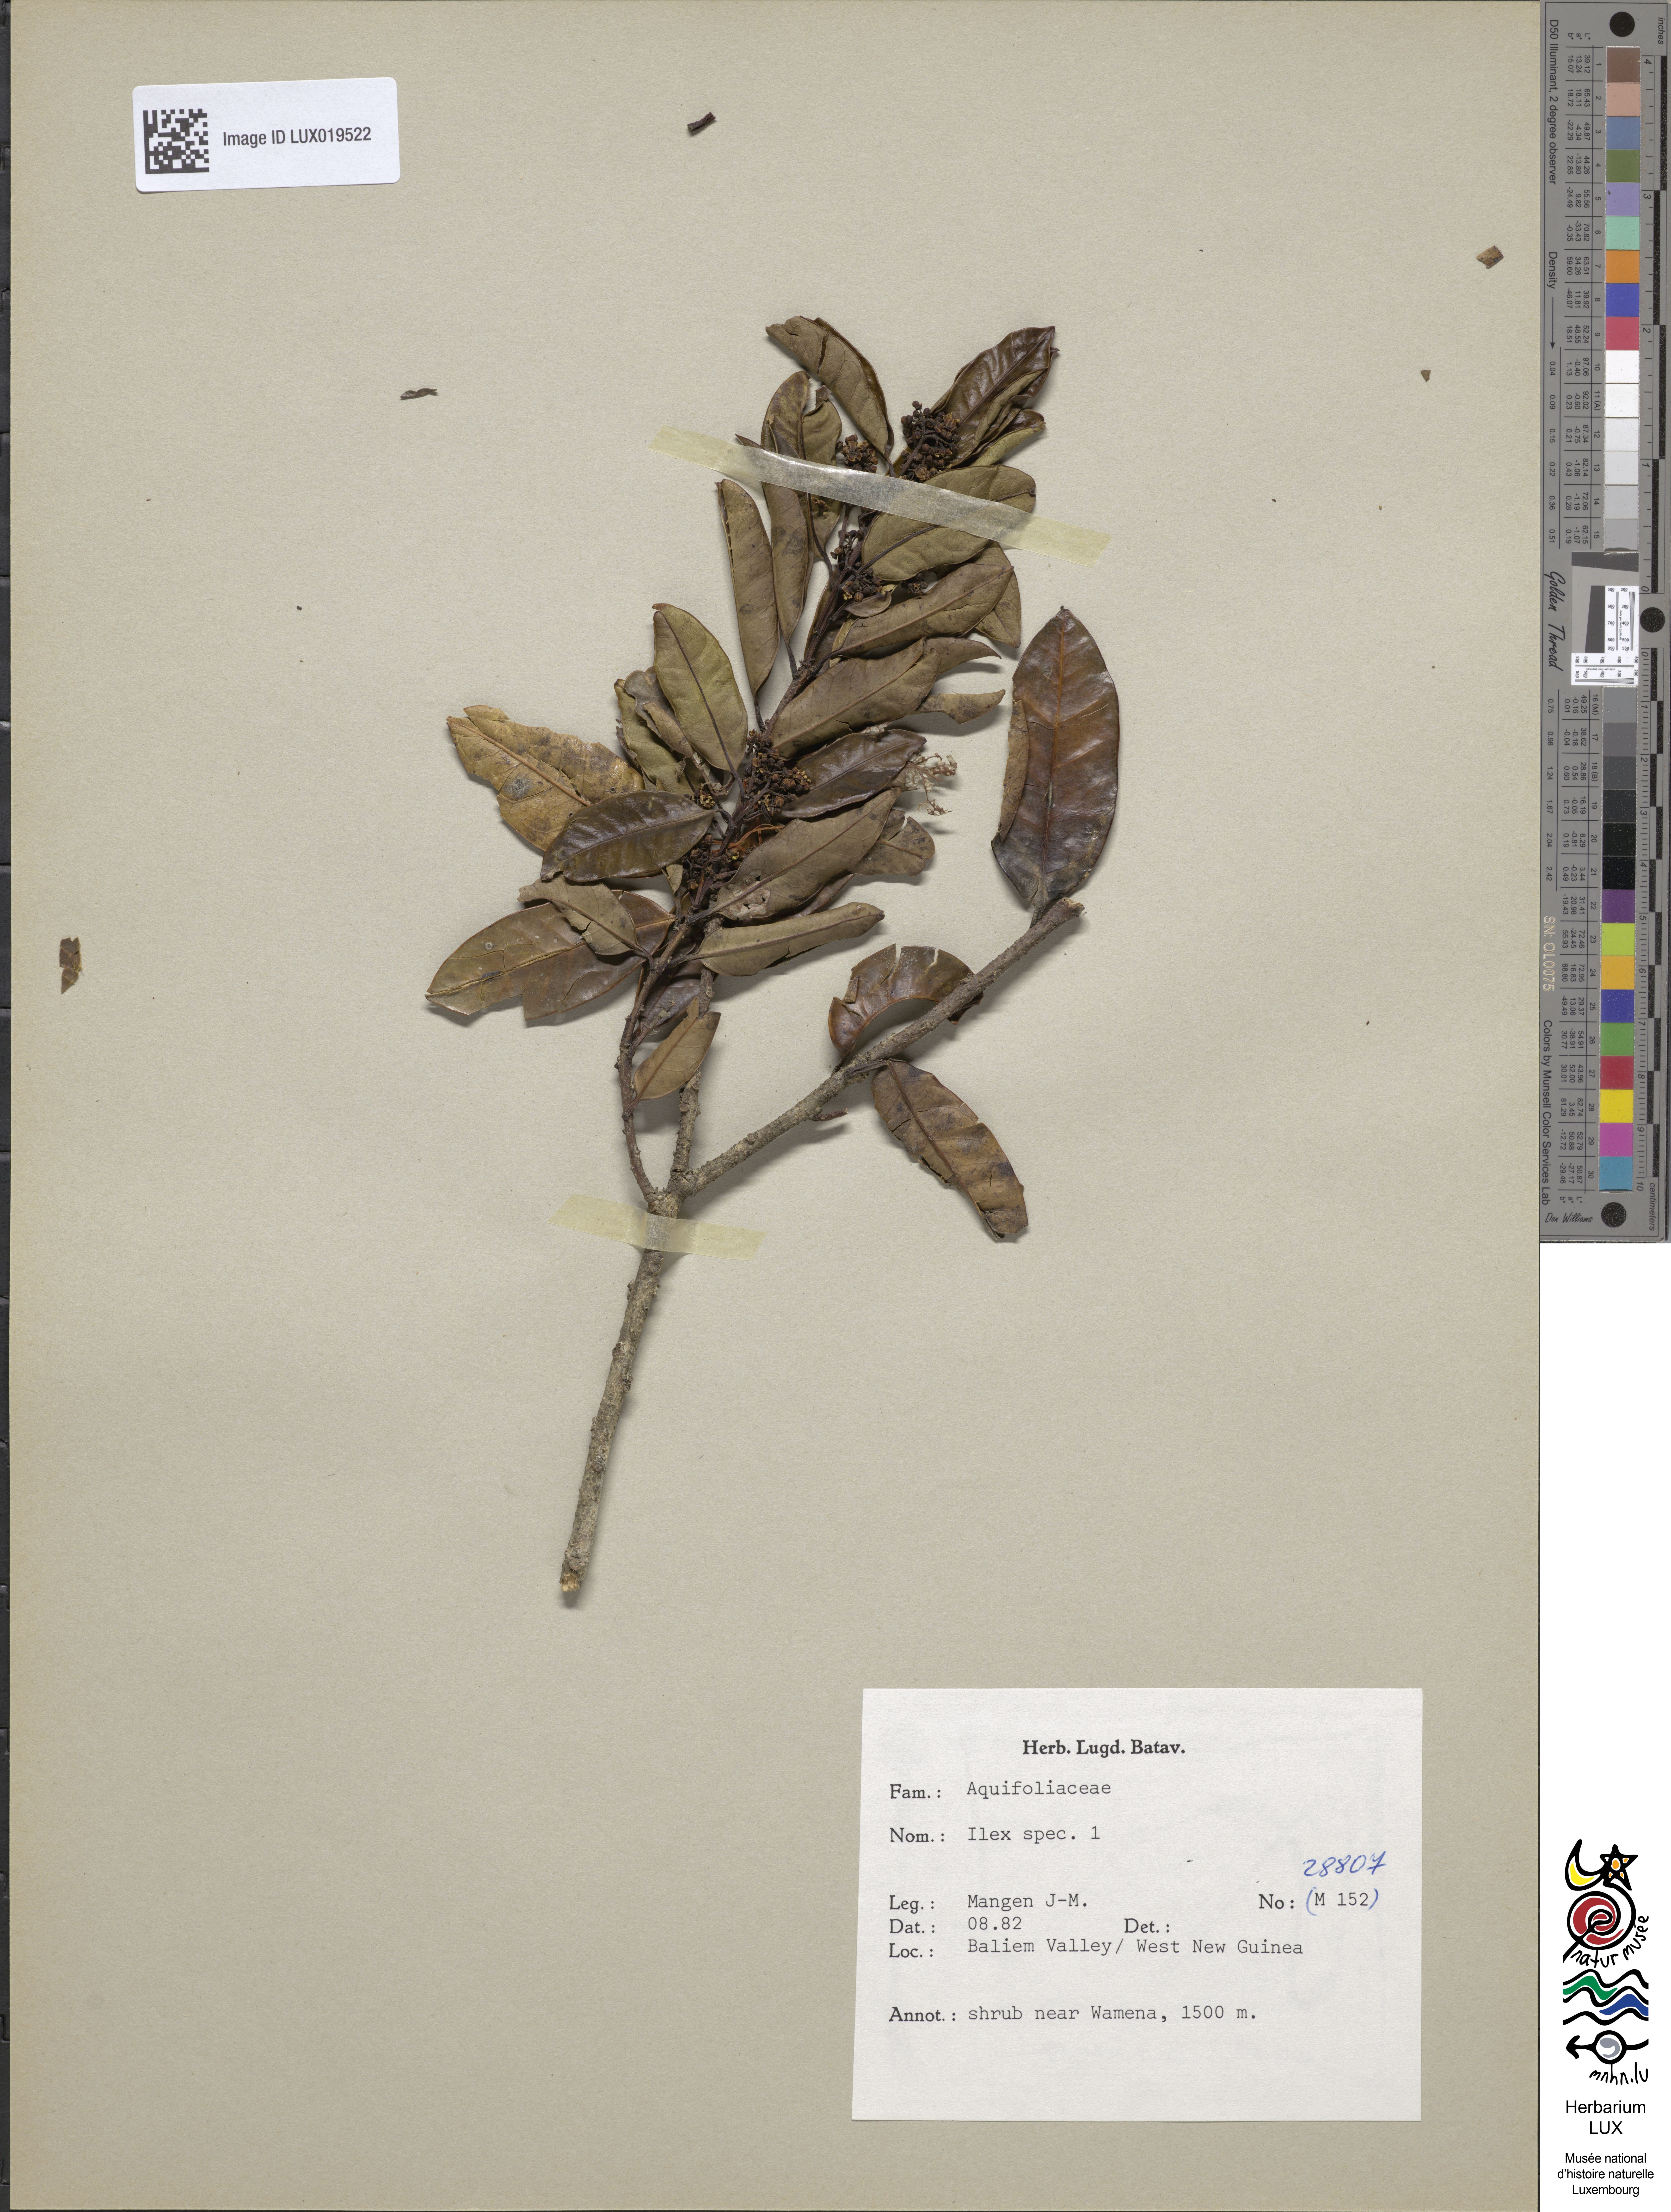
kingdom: Plantae
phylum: Tracheophyta
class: Magnoliopsida
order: Aquifoliales
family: Aquifoliaceae
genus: Ilex
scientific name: Ilex
